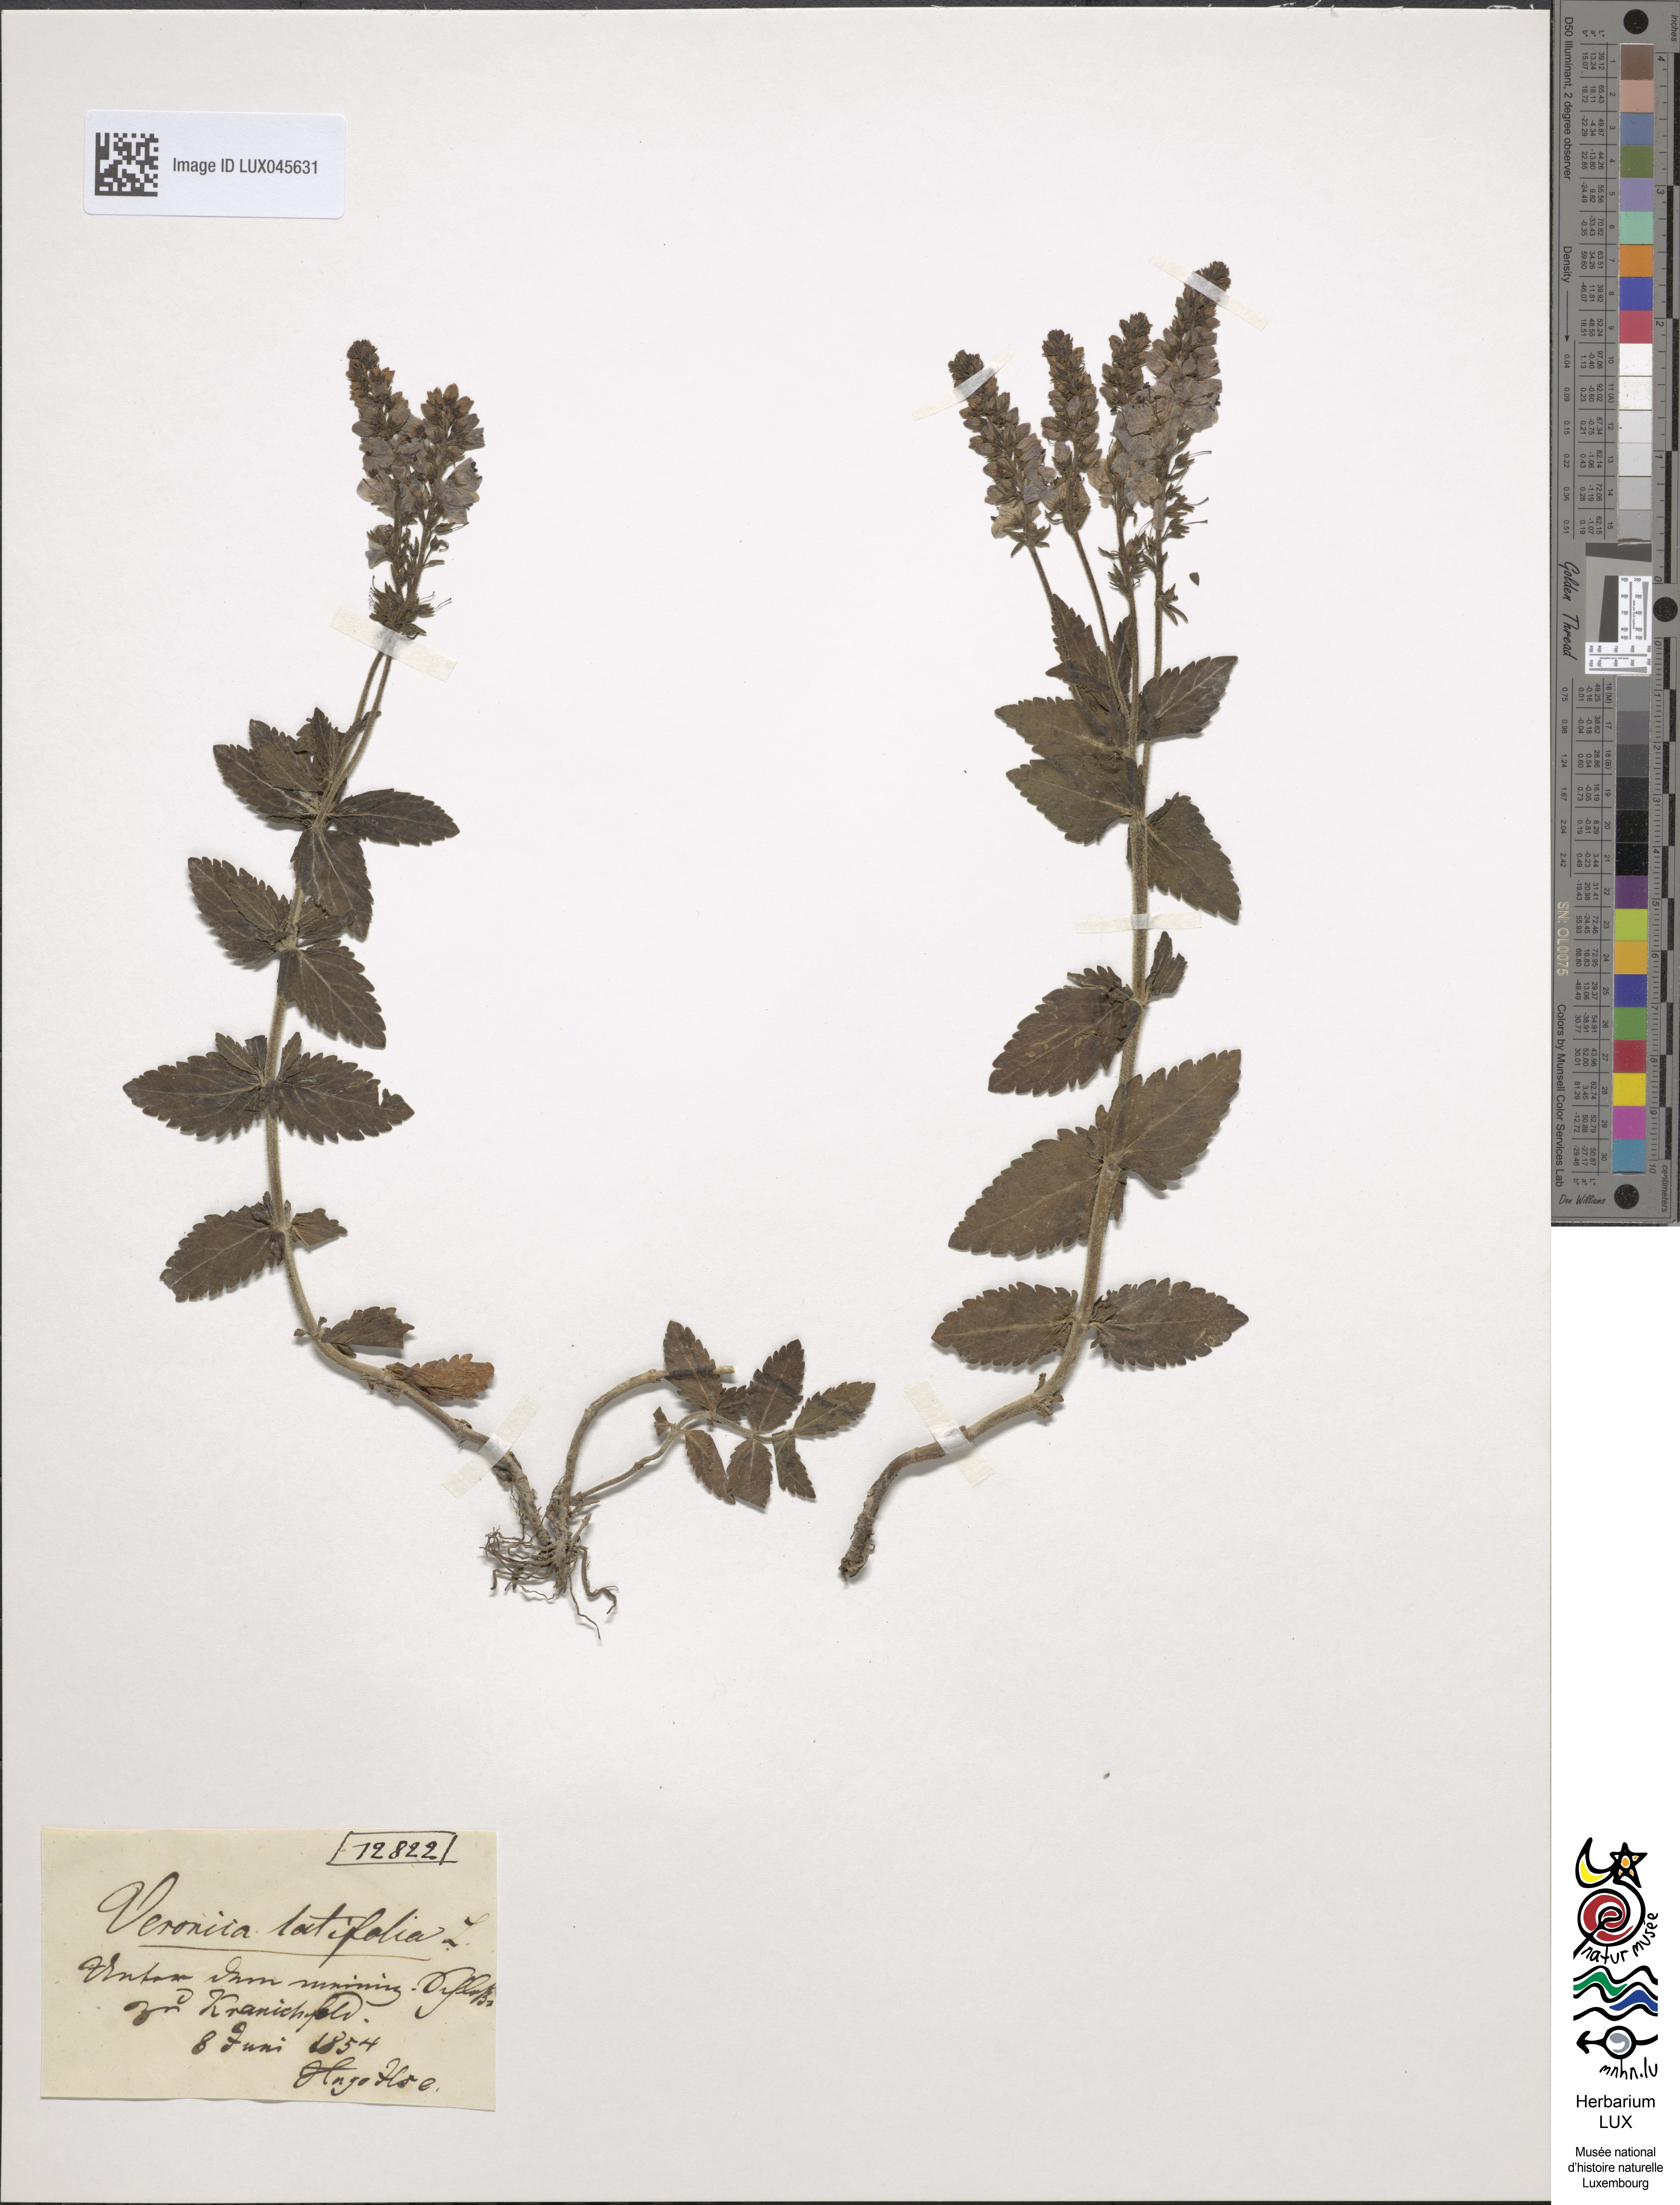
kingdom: Plantae
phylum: Tracheophyta
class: Magnoliopsida
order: Lamiales
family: Plantaginaceae
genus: Veronica
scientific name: Veronica urticifolia
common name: Nettle-leaf speedwell
